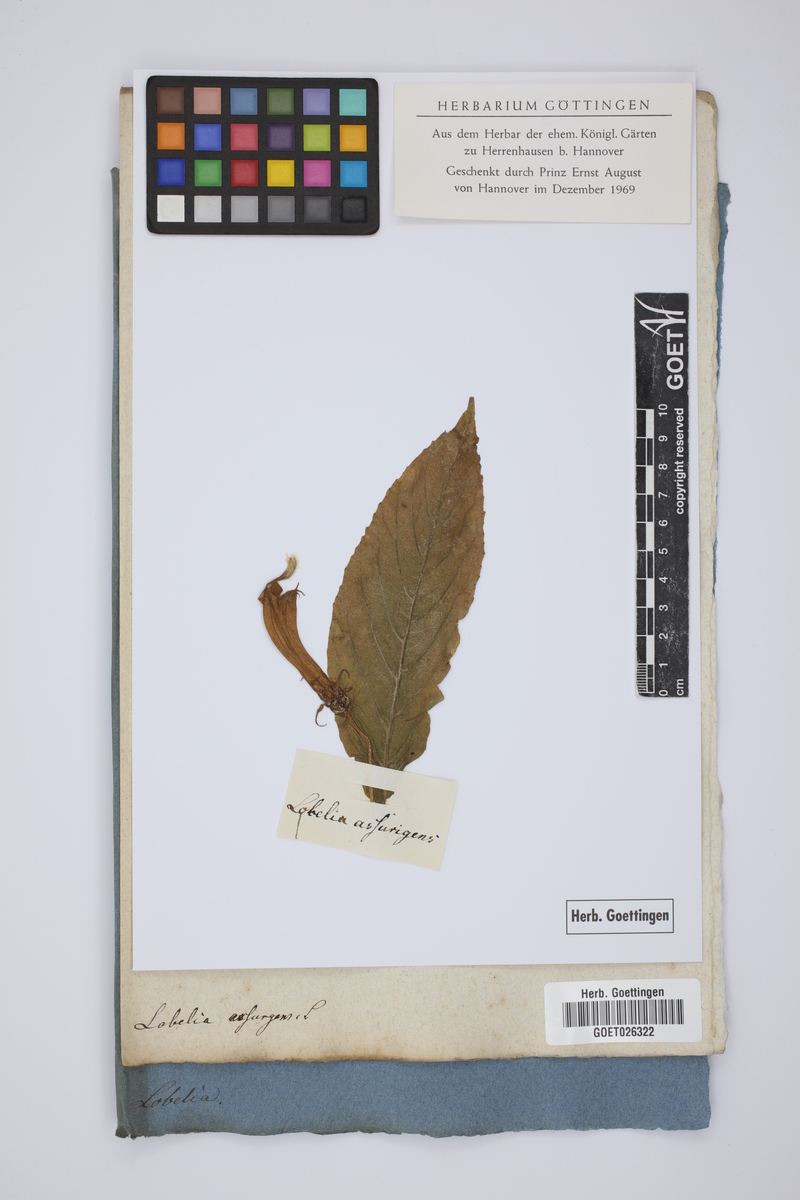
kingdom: Plantae
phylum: Tracheophyta
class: Magnoliopsida
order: Asterales
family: Campanulaceae
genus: Lobelia
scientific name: Lobelia assurgens
